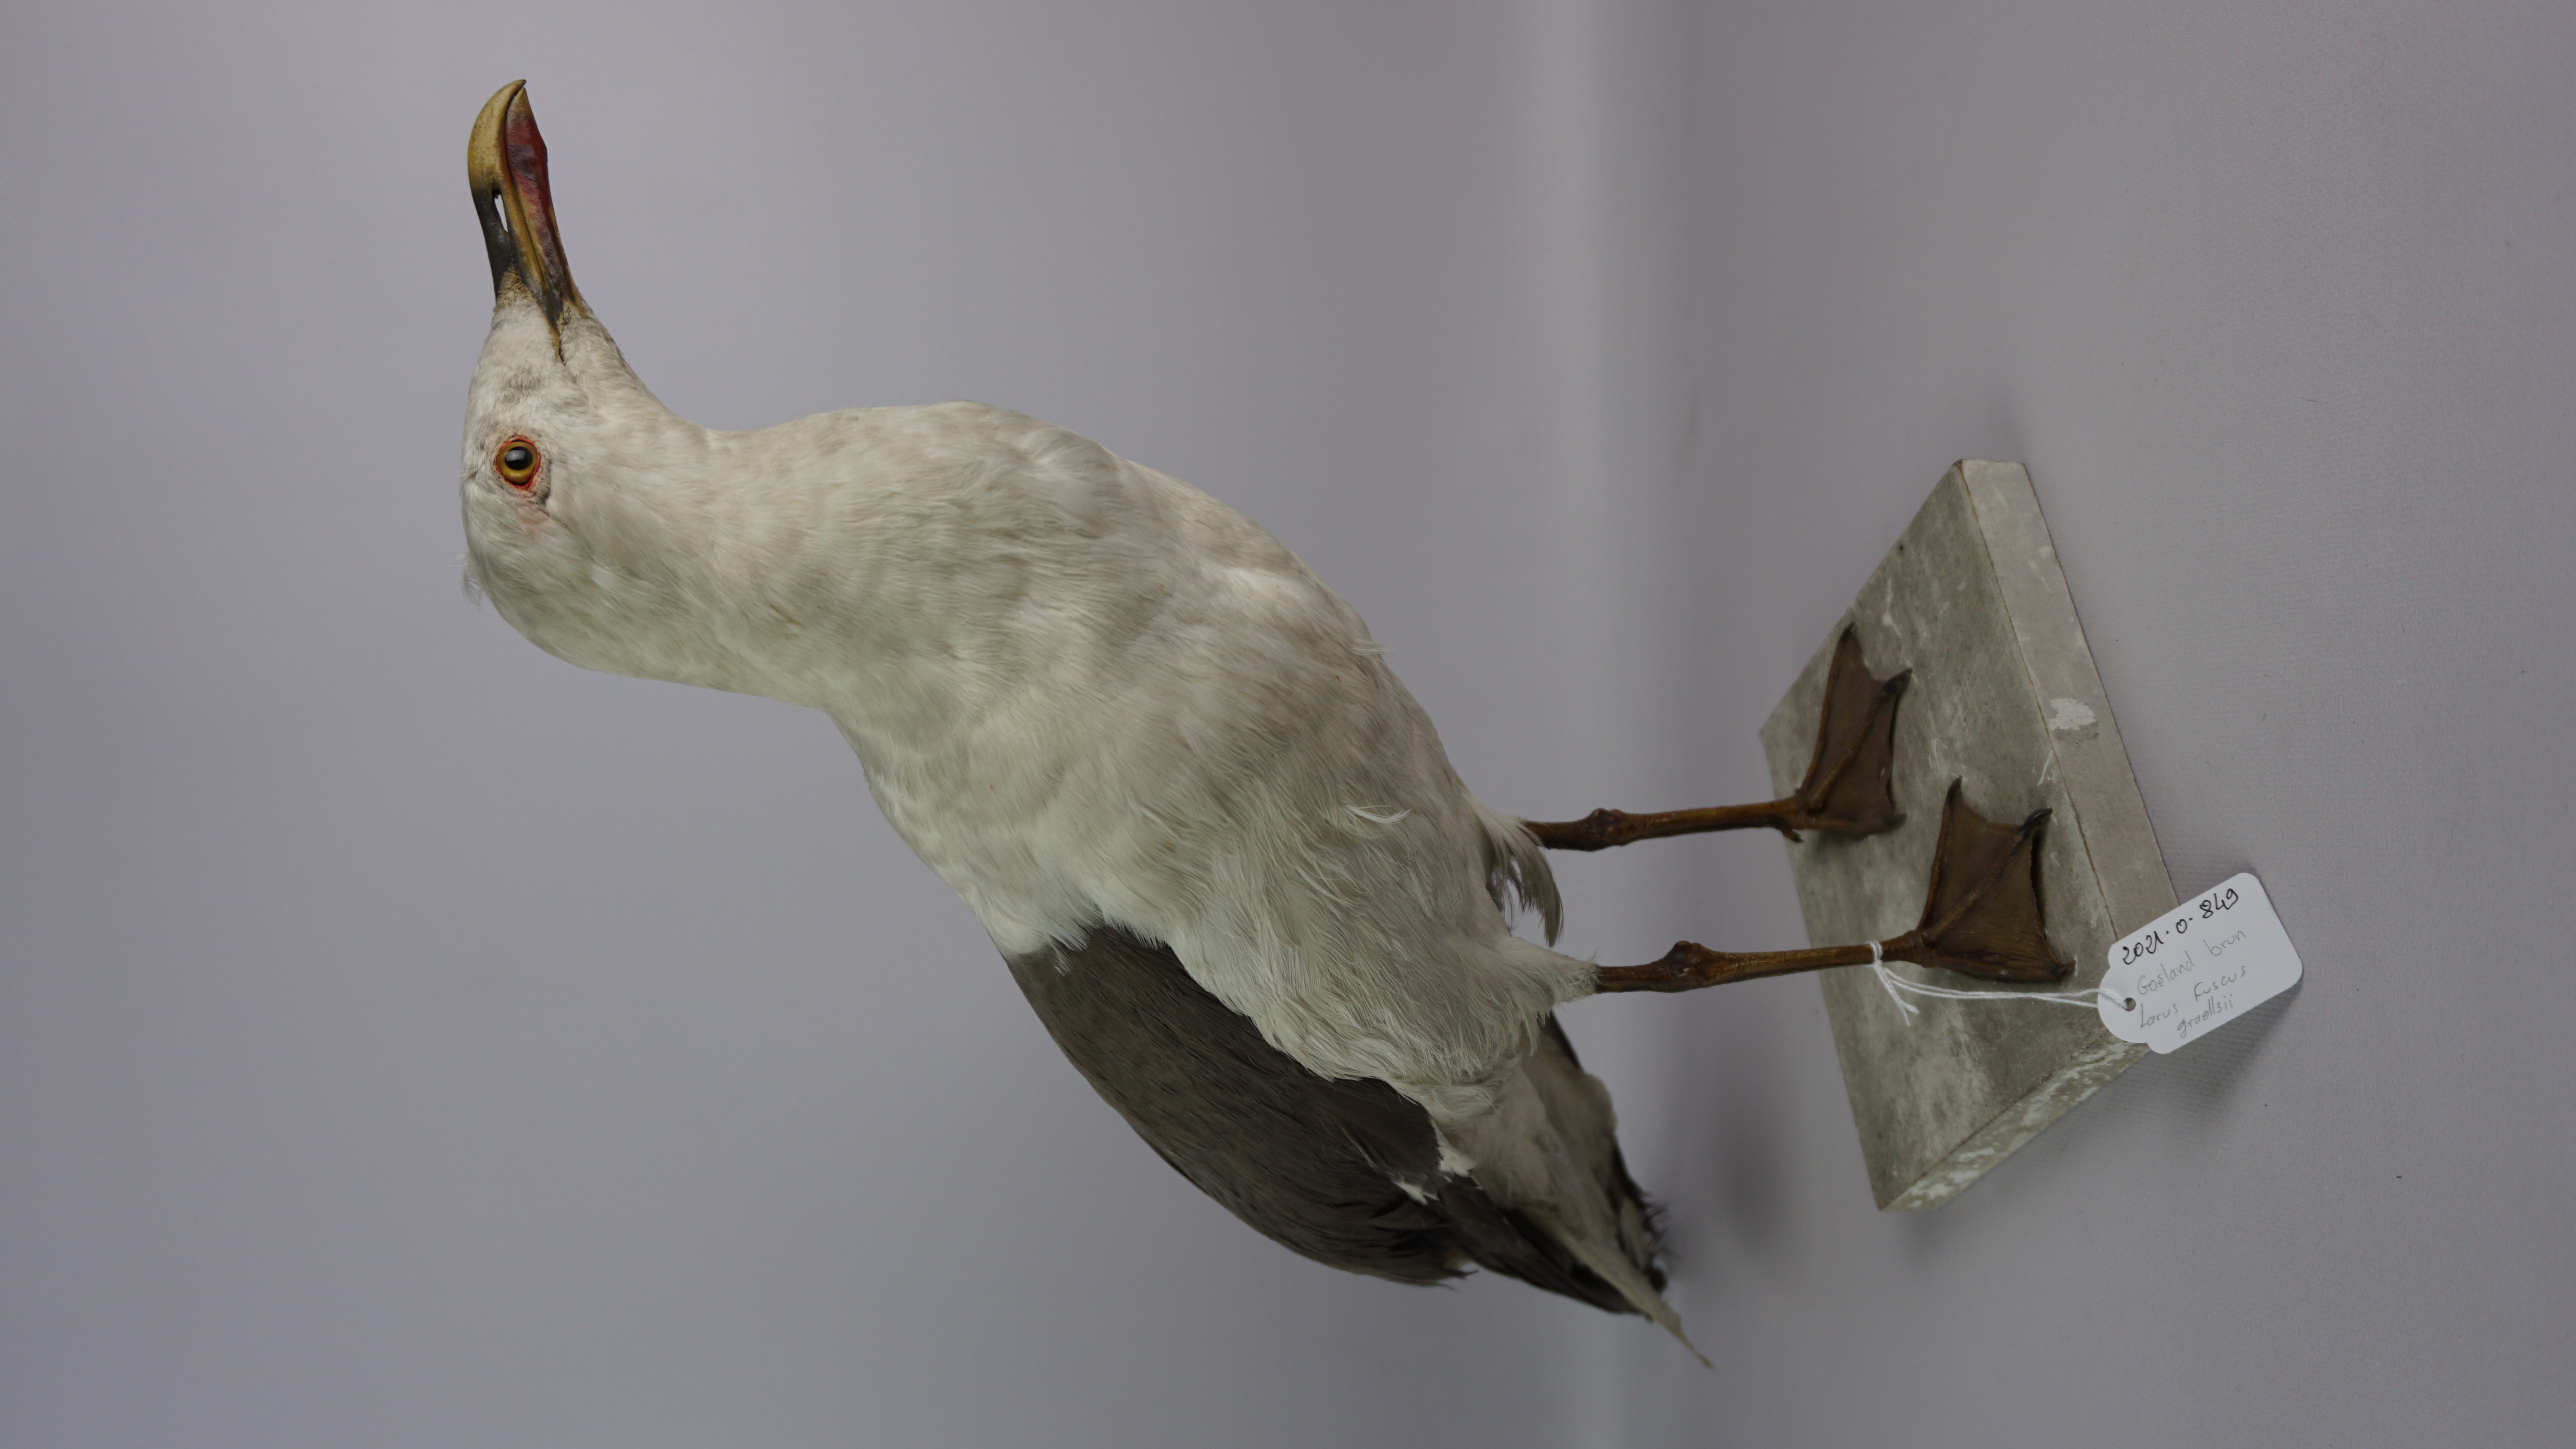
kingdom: Animalia
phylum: Chordata
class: Aves
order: Charadriiformes
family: Laridae
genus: Larus
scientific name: Larus fuscus
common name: Lesser black-backed gull
